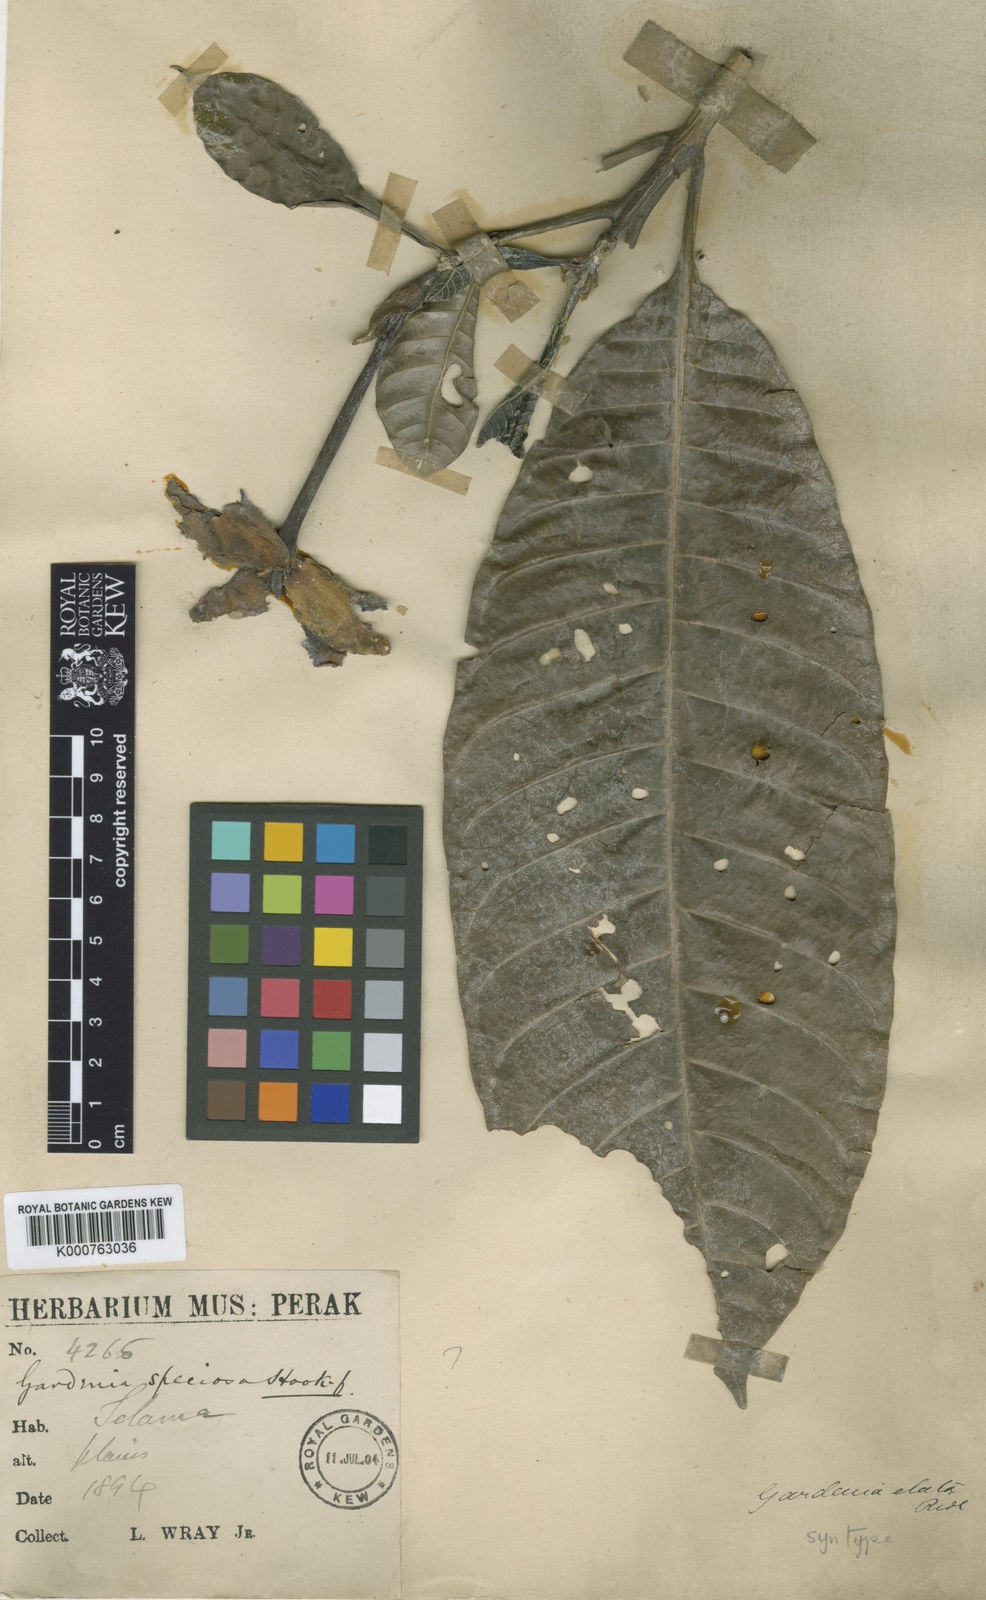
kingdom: Plantae
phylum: Tracheophyta
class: Magnoliopsida
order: Gentianales
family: Rubiaceae
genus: Gardenia
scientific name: Gardenia elata
